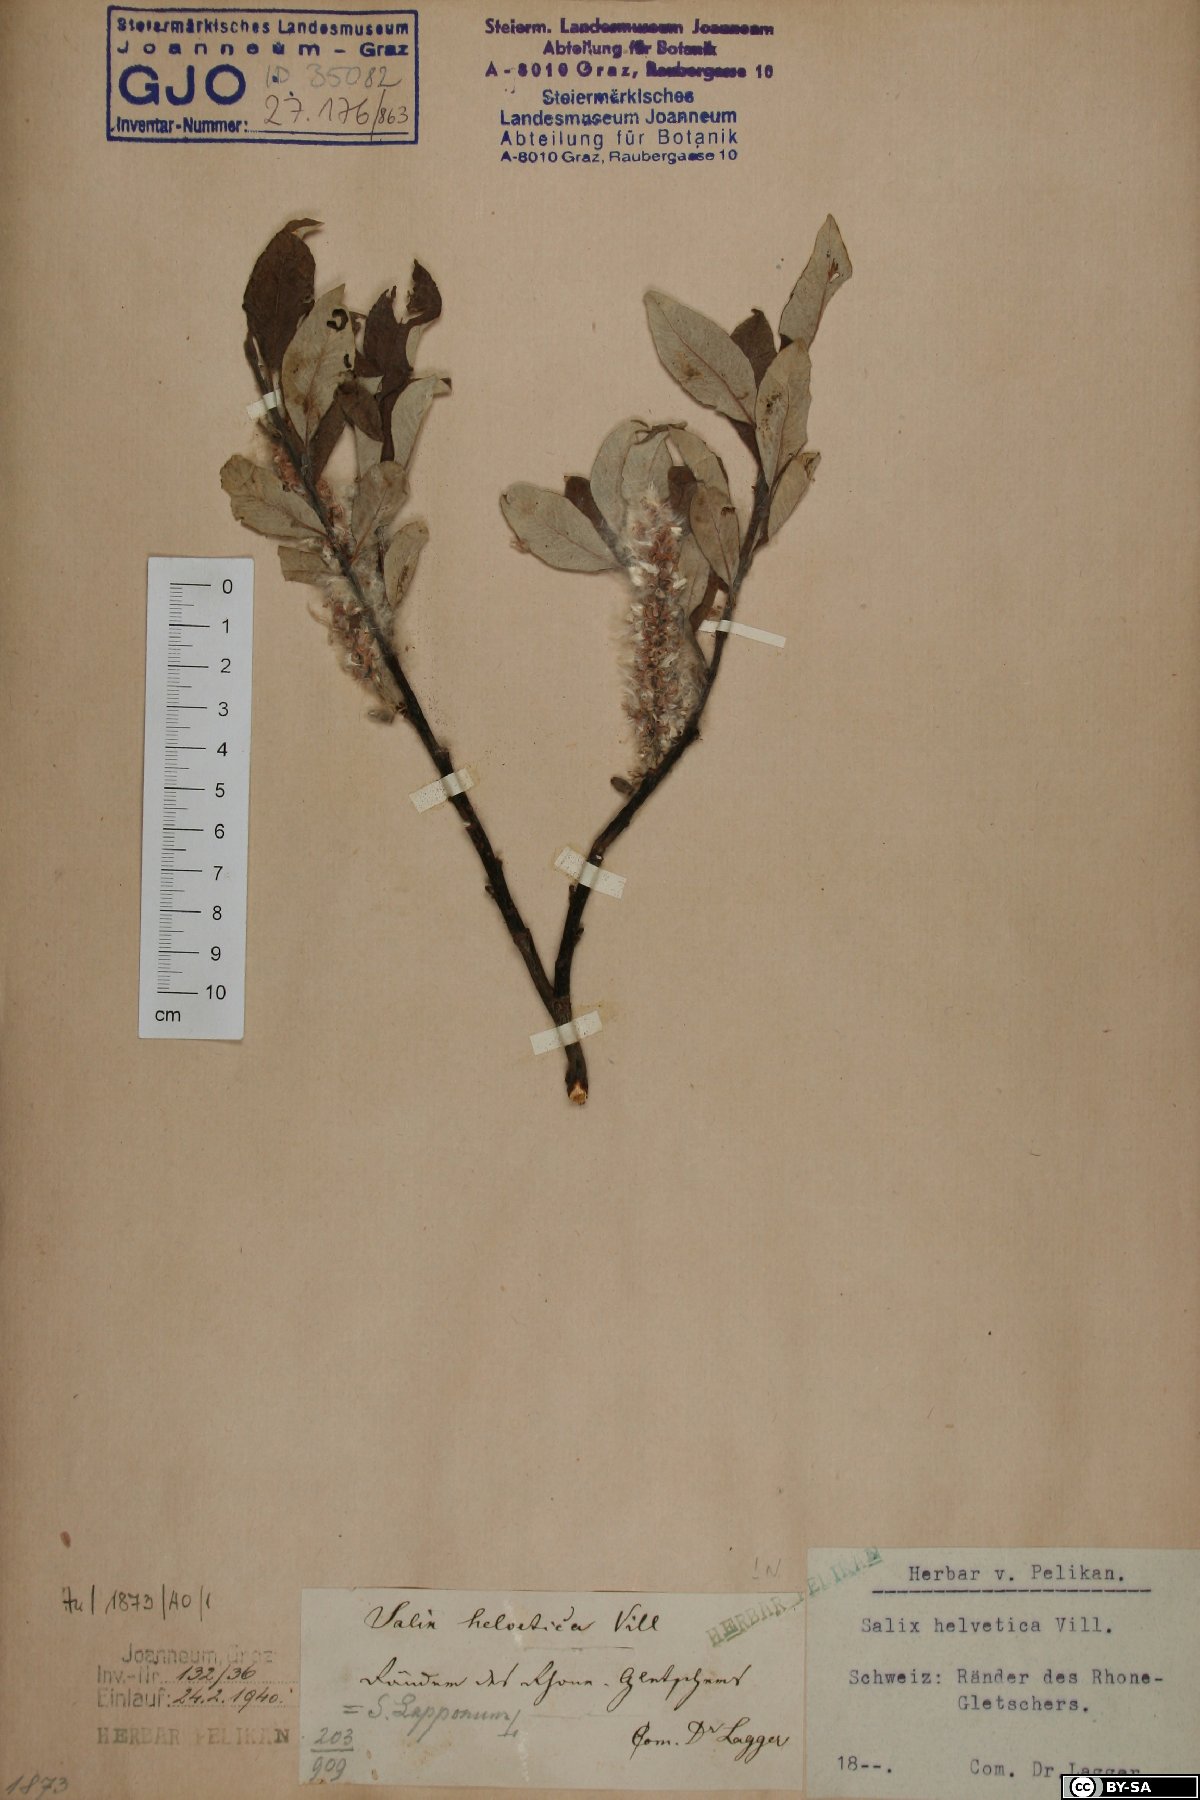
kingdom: Plantae
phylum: Tracheophyta
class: Magnoliopsida
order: Malpighiales
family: Salicaceae
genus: Salix
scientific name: Salix helvetica
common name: Swiss willow
